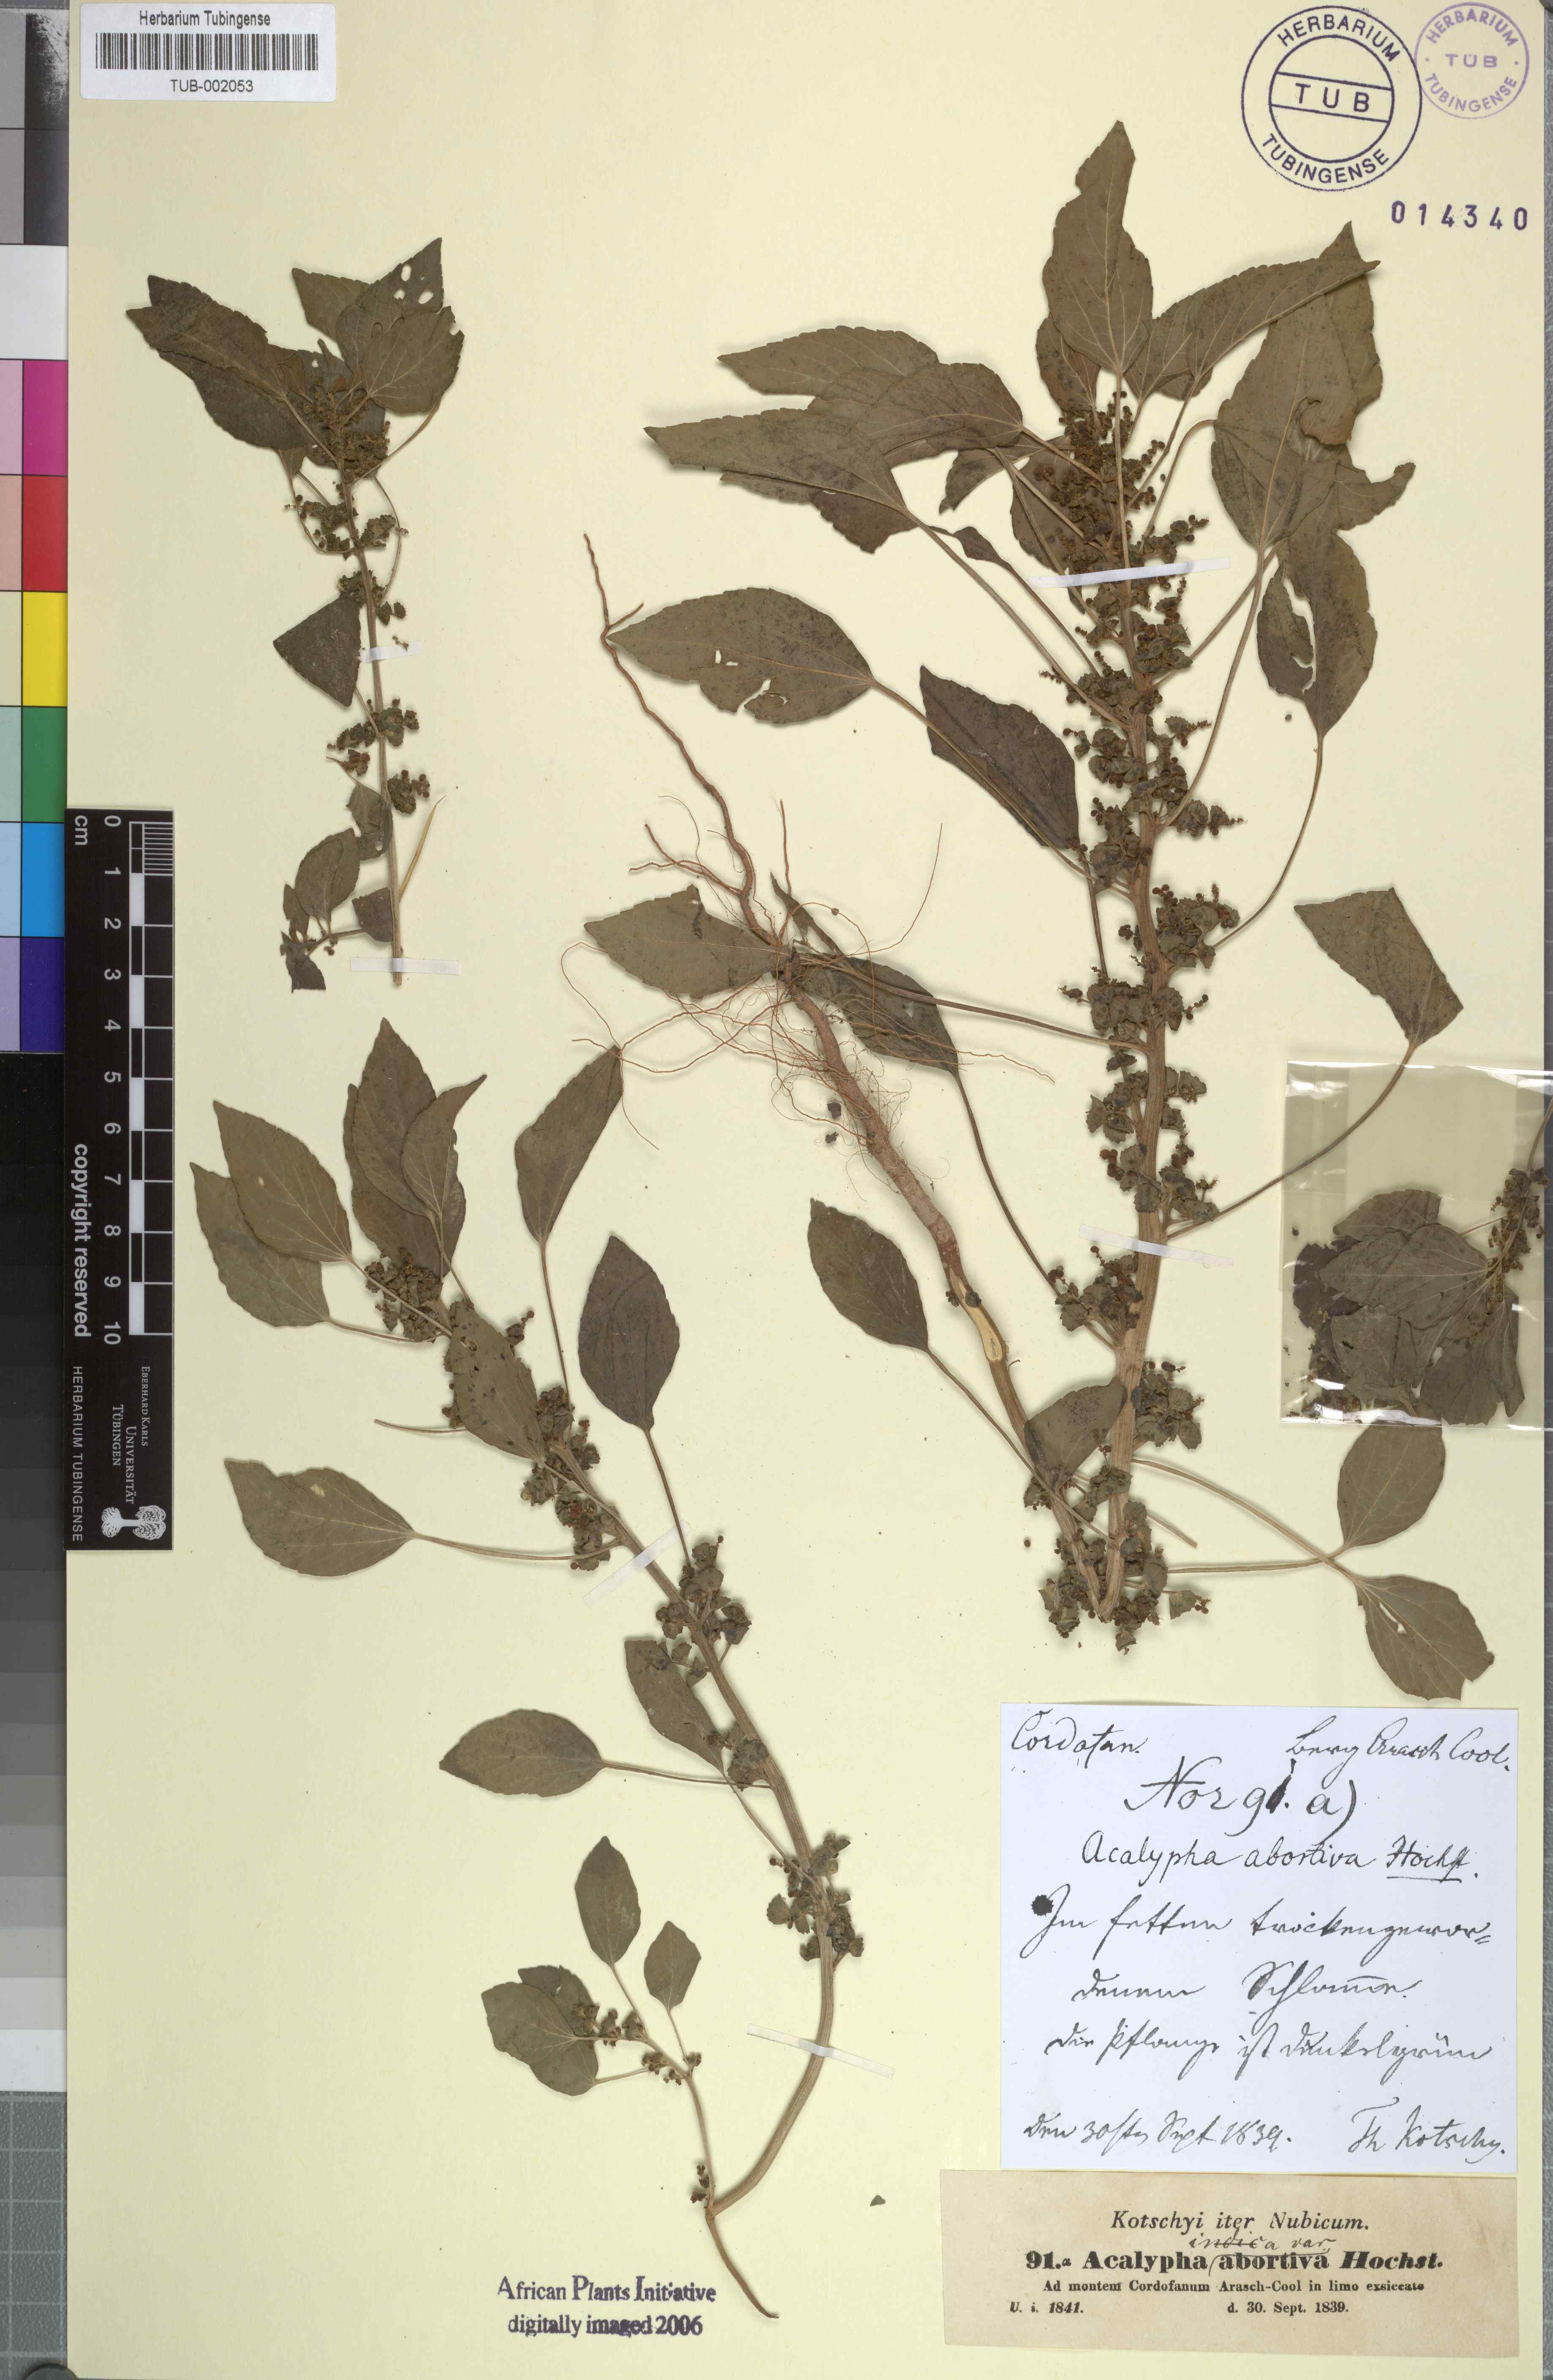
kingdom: Plantae
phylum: Tracheophyta
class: Magnoliopsida
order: Malpighiales
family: Euphorbiaceae
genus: Acalypha
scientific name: Acalypha crenata
